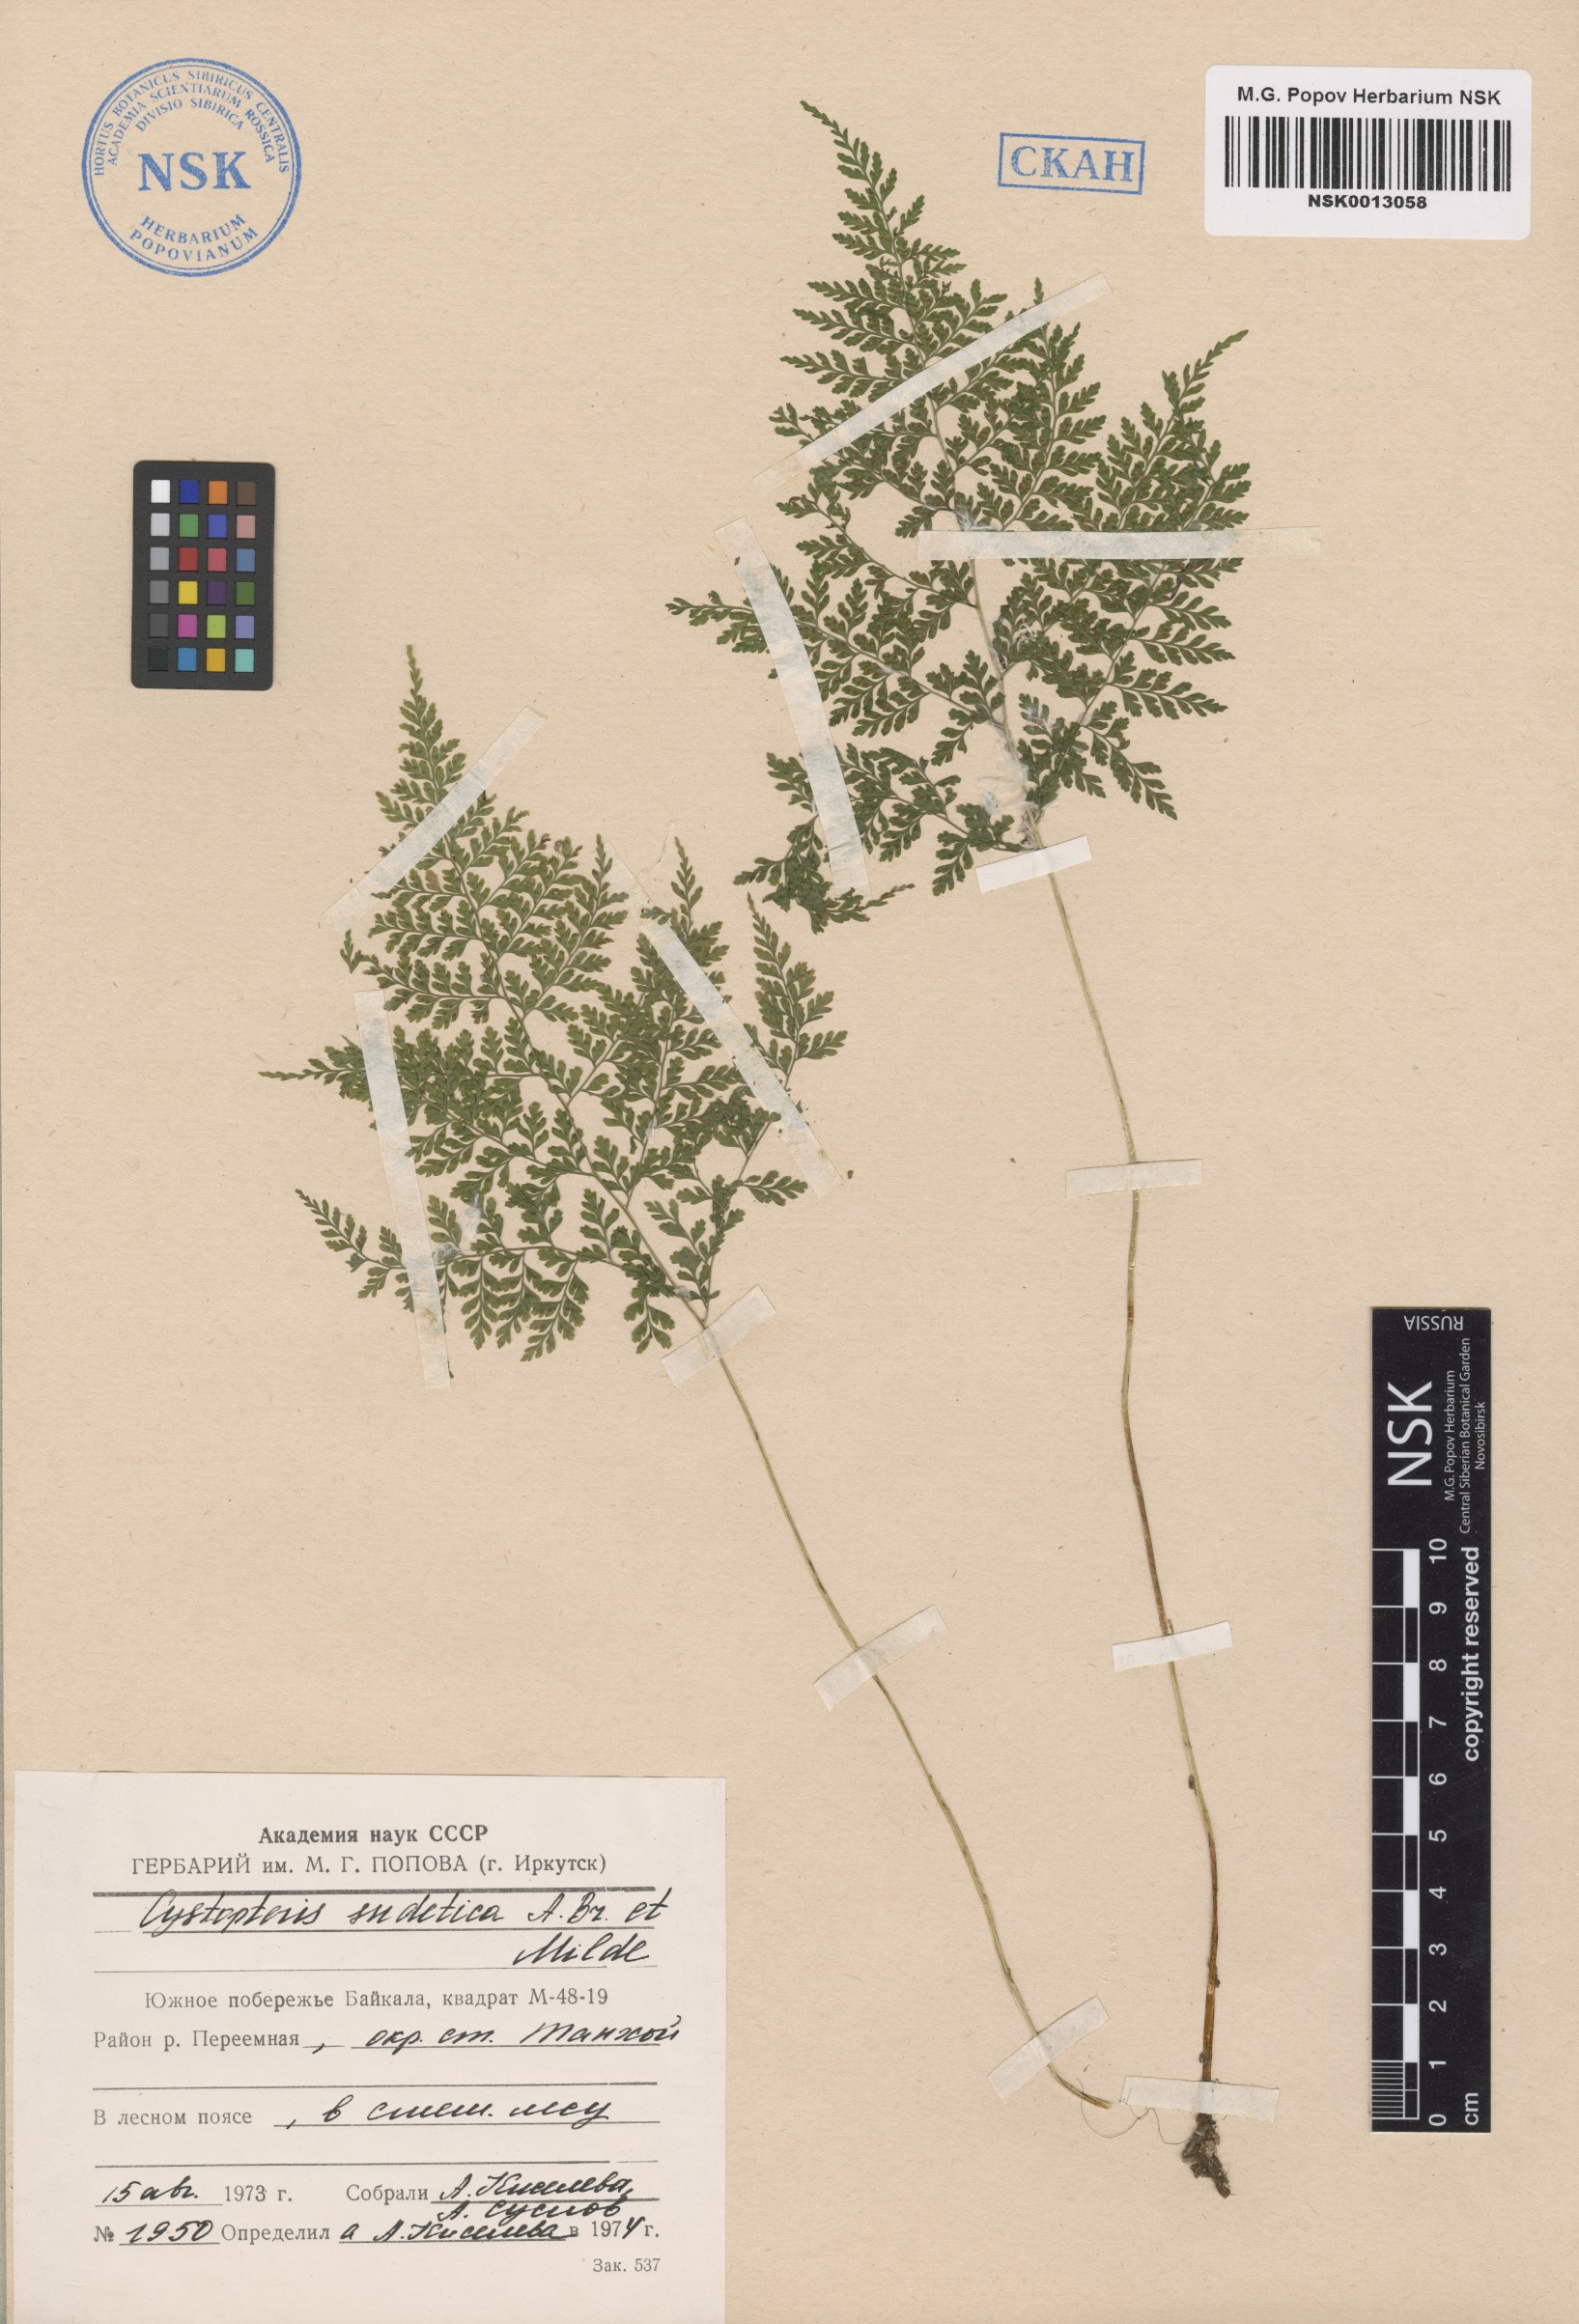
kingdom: Plantae
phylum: Tracheophyta
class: Polypodiopsida
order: Polypodiales
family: Cystopteridaceae
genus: Cystopteris
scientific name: Cystopteris sudetica
